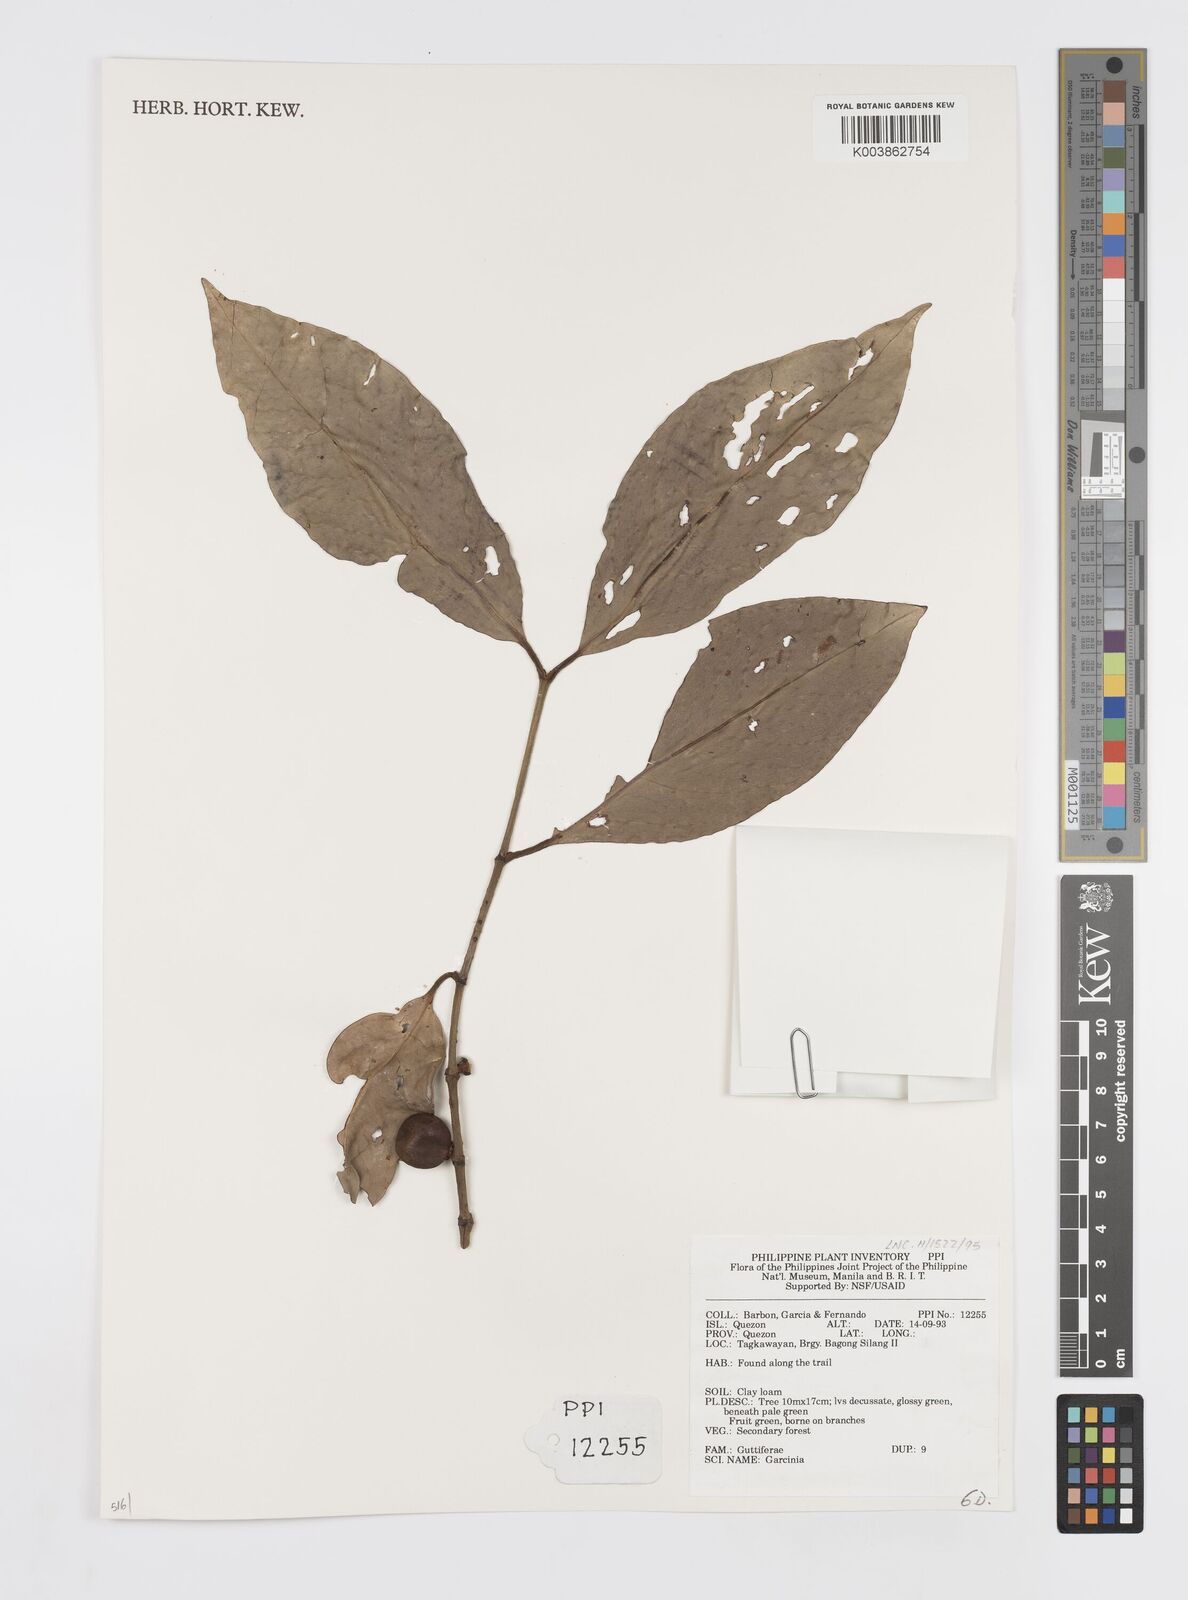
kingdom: Plantae
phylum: Tracheophyta
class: Magnoliopsida
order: Malpighiales
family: Clusiaceae
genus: Garcinia
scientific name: Garcinia
